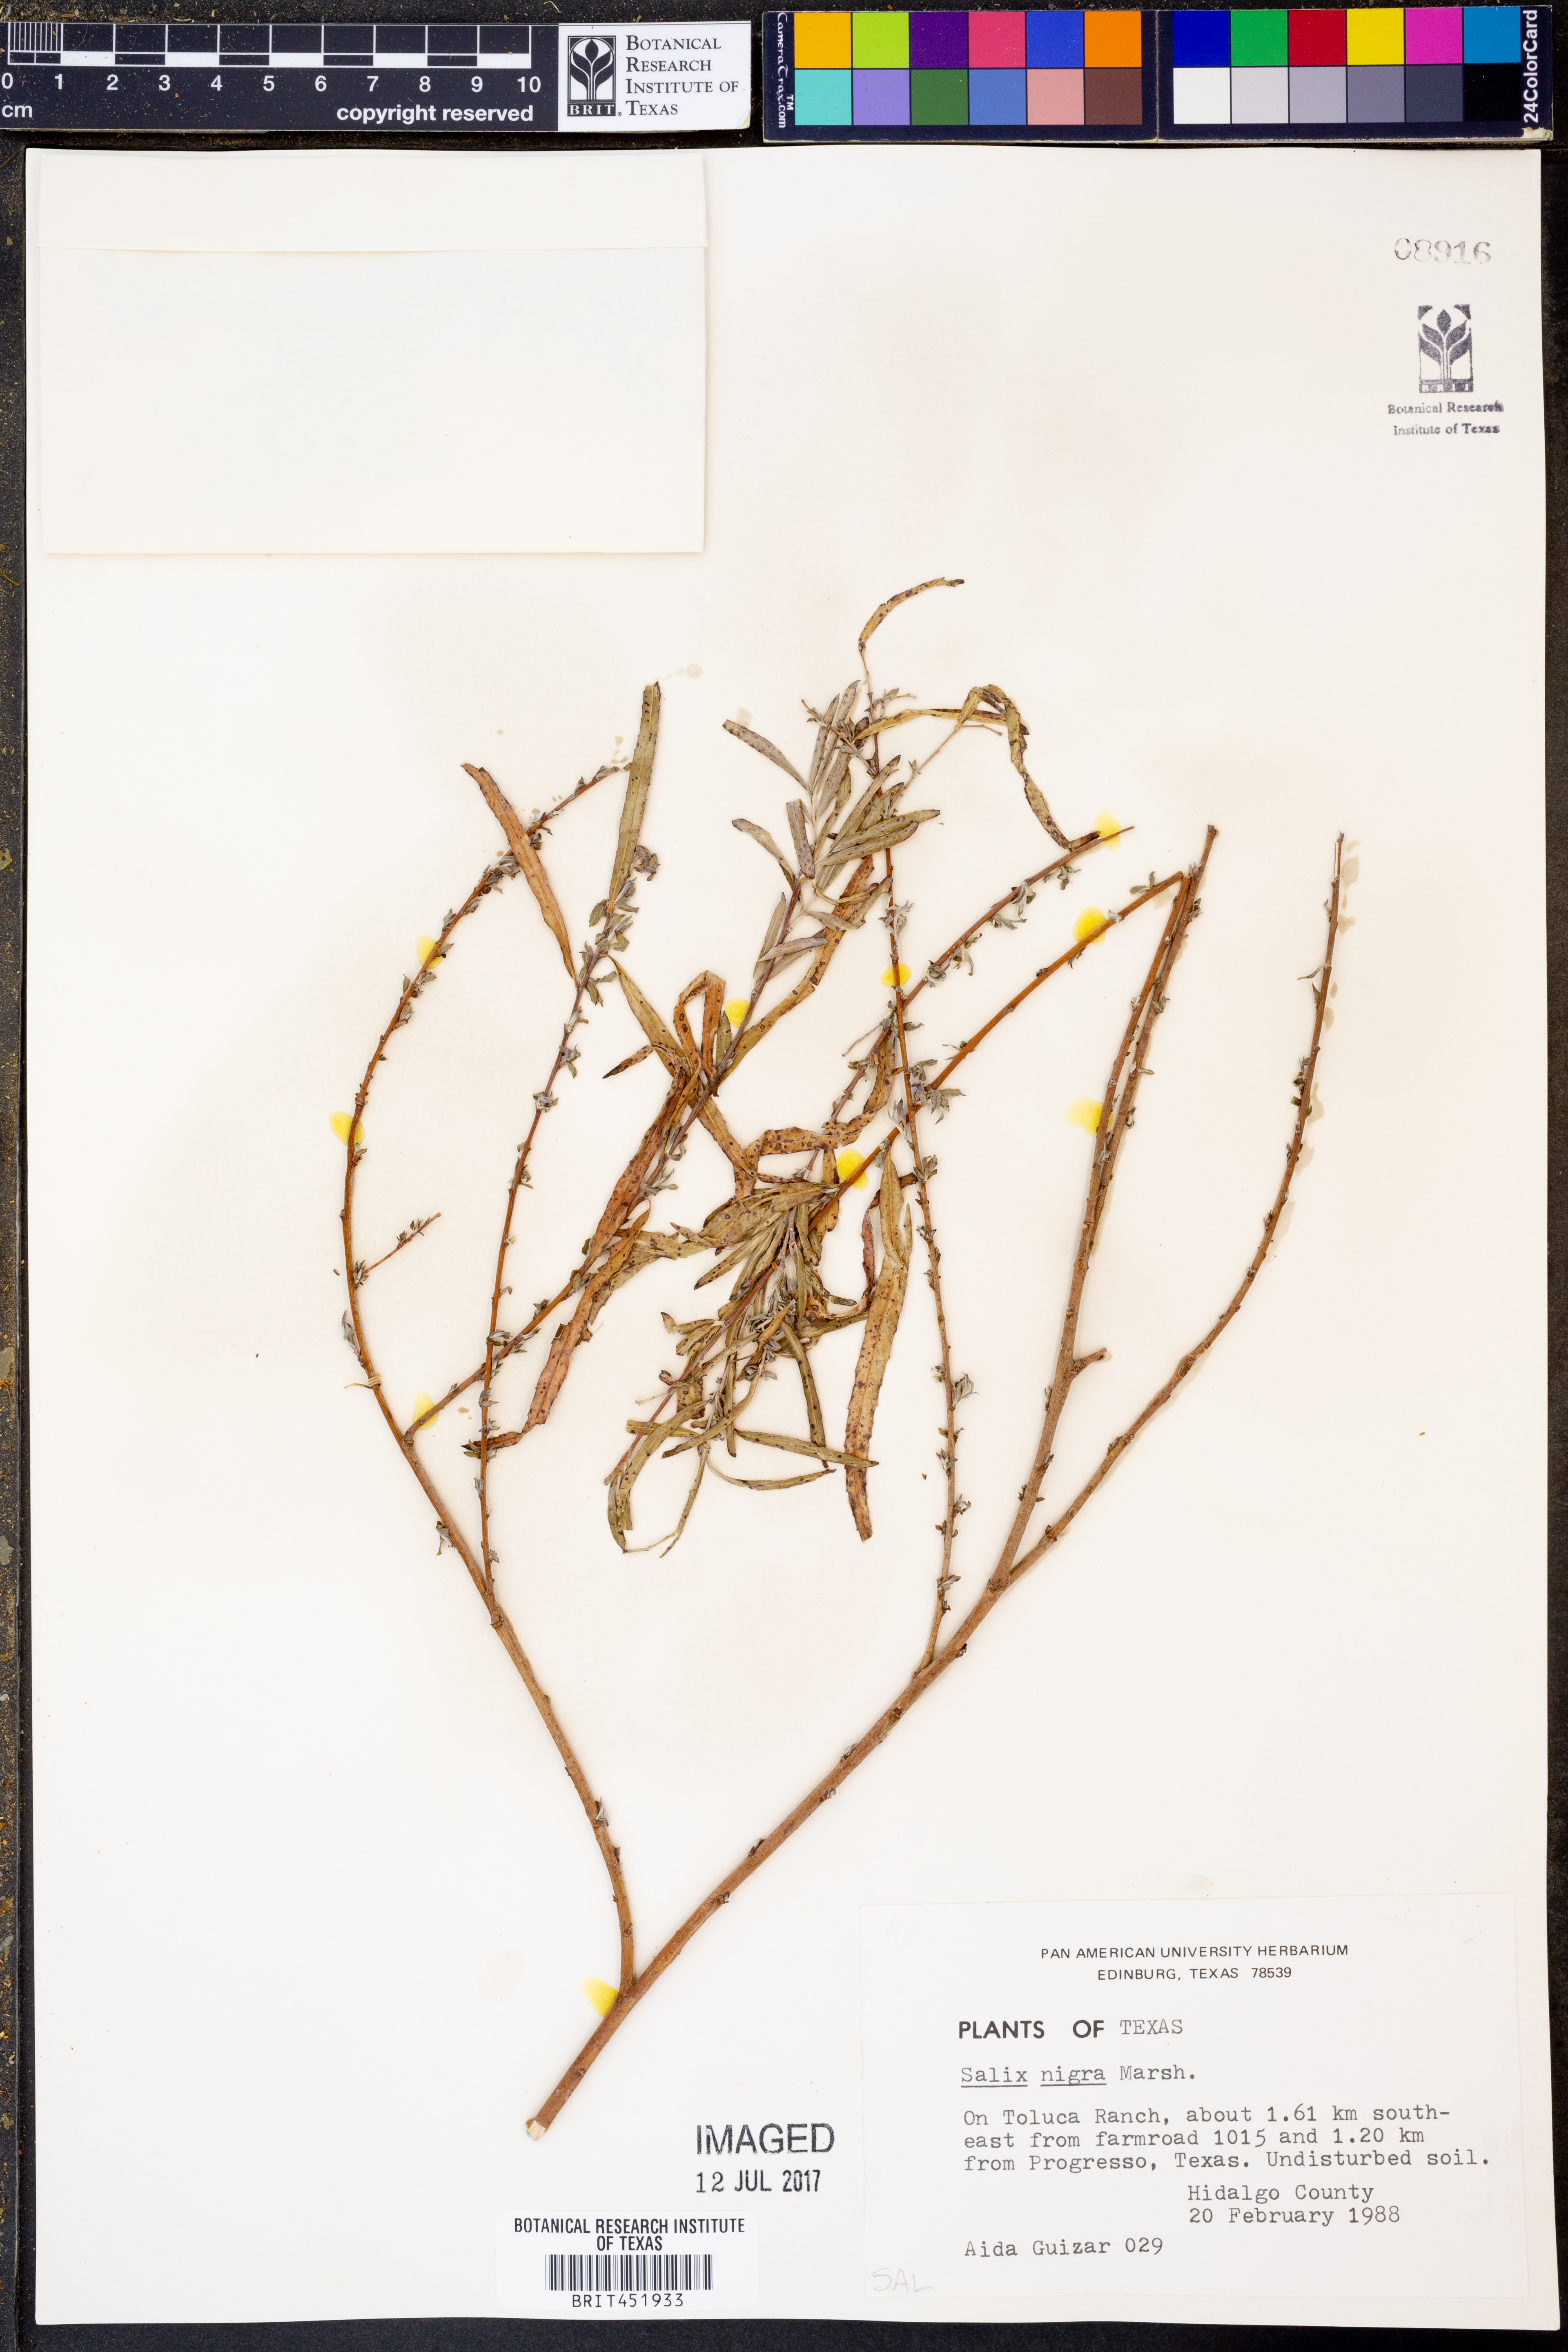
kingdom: Plantae
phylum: Tracheophyta
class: Magnoliopsida
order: Malpighiales
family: Salicaceae
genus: Salix
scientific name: Salix nigra
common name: Black willow
